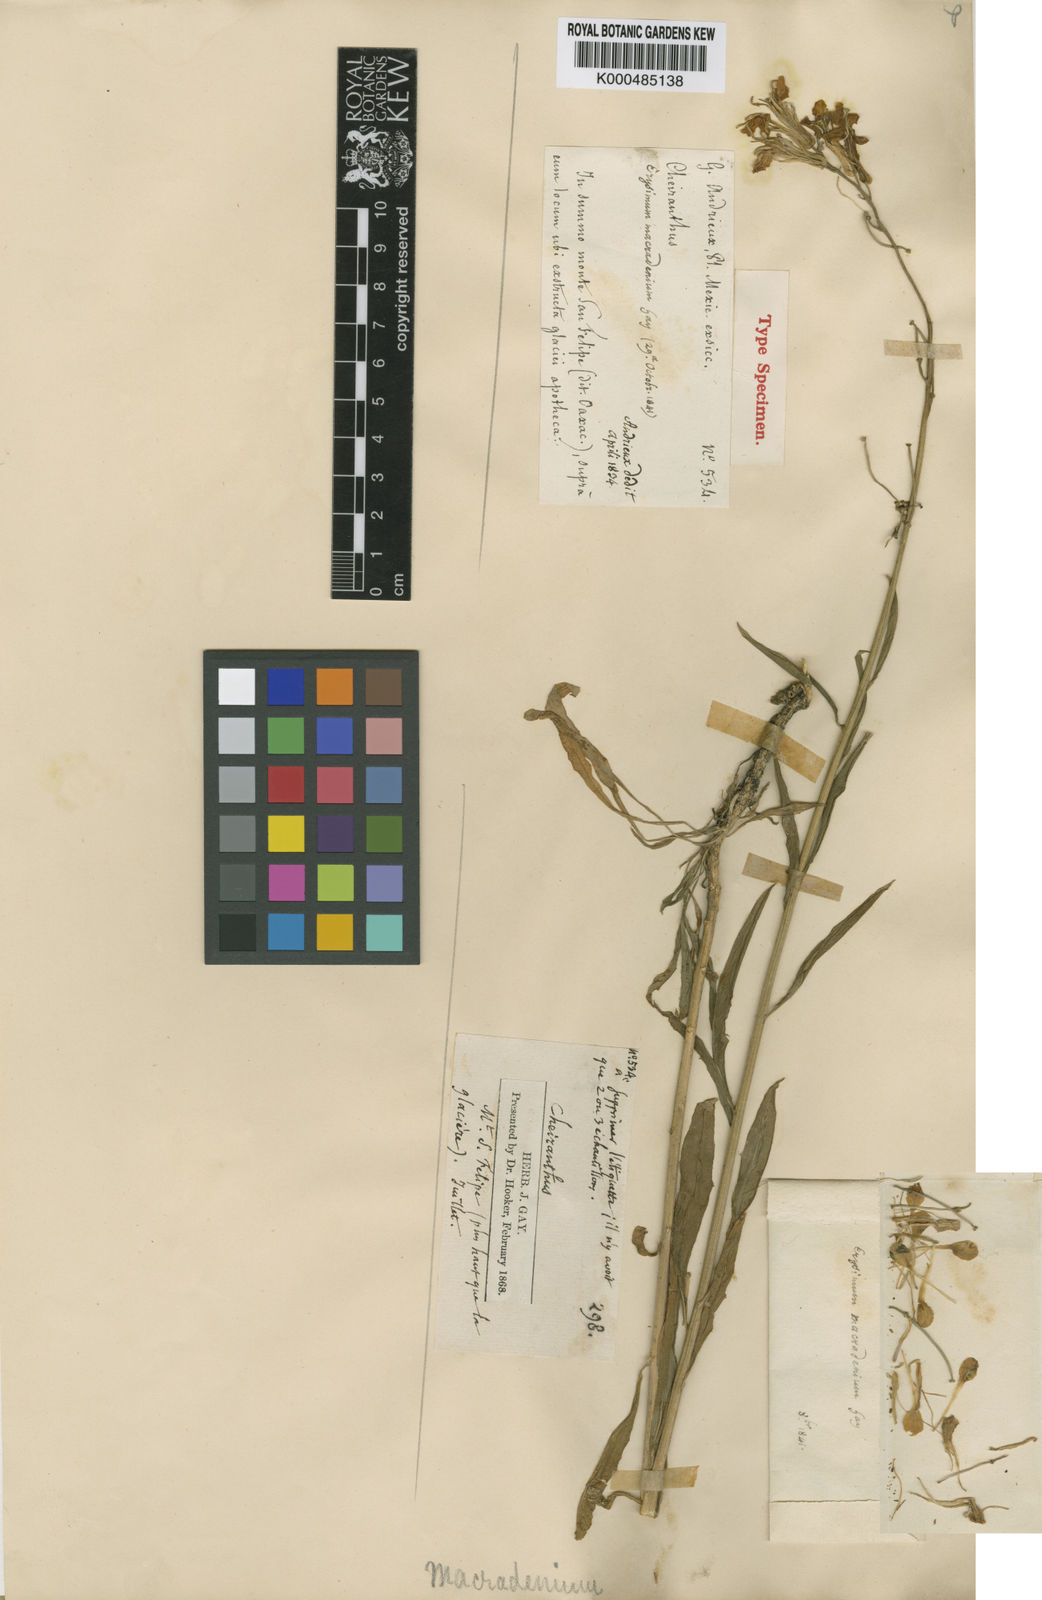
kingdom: Plantae
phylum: Tracheophyta
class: Magnoliopsida
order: Brassicales
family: Brassicaceae
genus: Erysimum
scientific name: Erysimum capitatum
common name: Western wallflower
